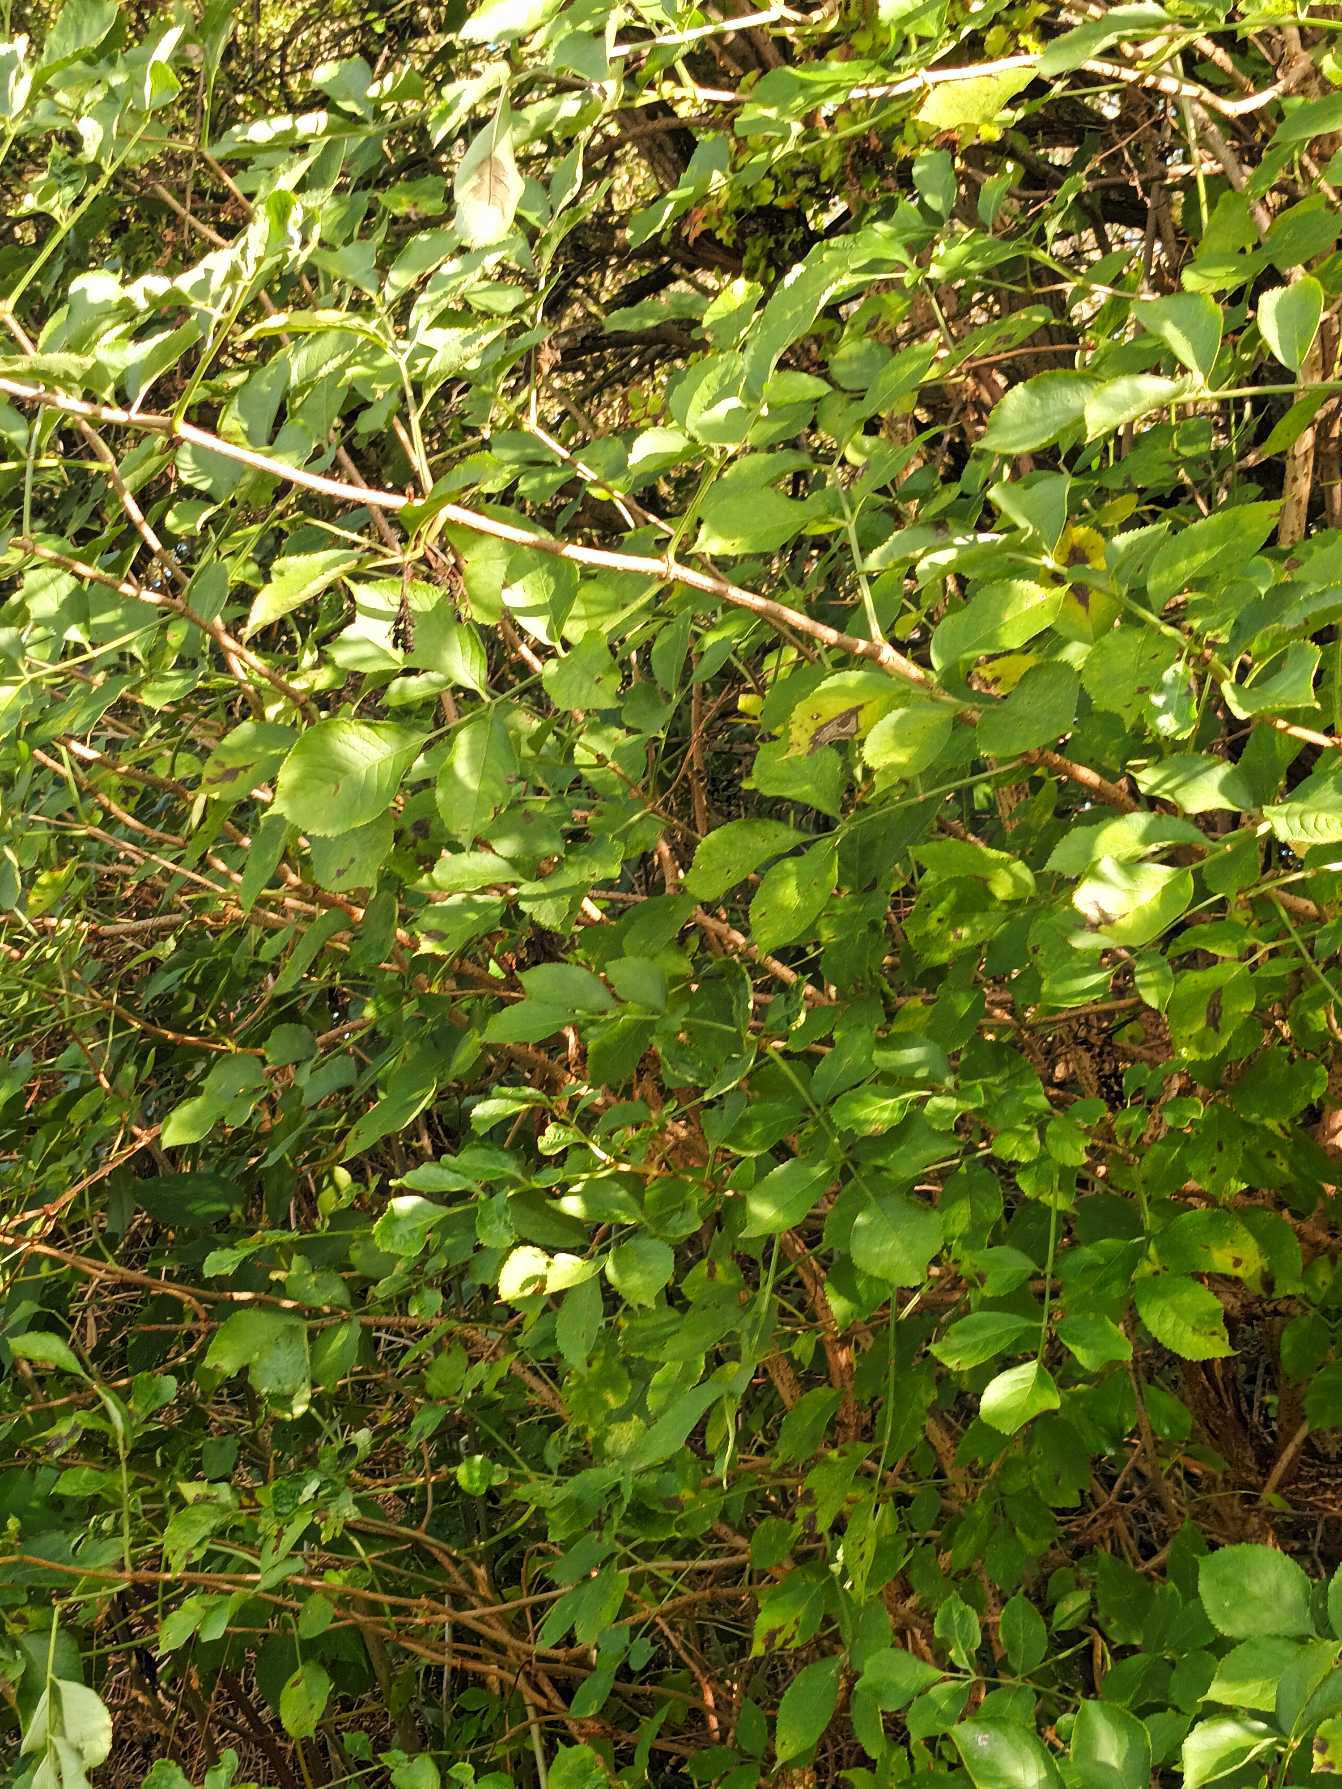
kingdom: Plantae
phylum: Tracheophyta
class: Magnoliopsida
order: Dipsacales
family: Viburnaceae
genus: Sambucus
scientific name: Sambucus nigra
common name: Almindelig hyld
